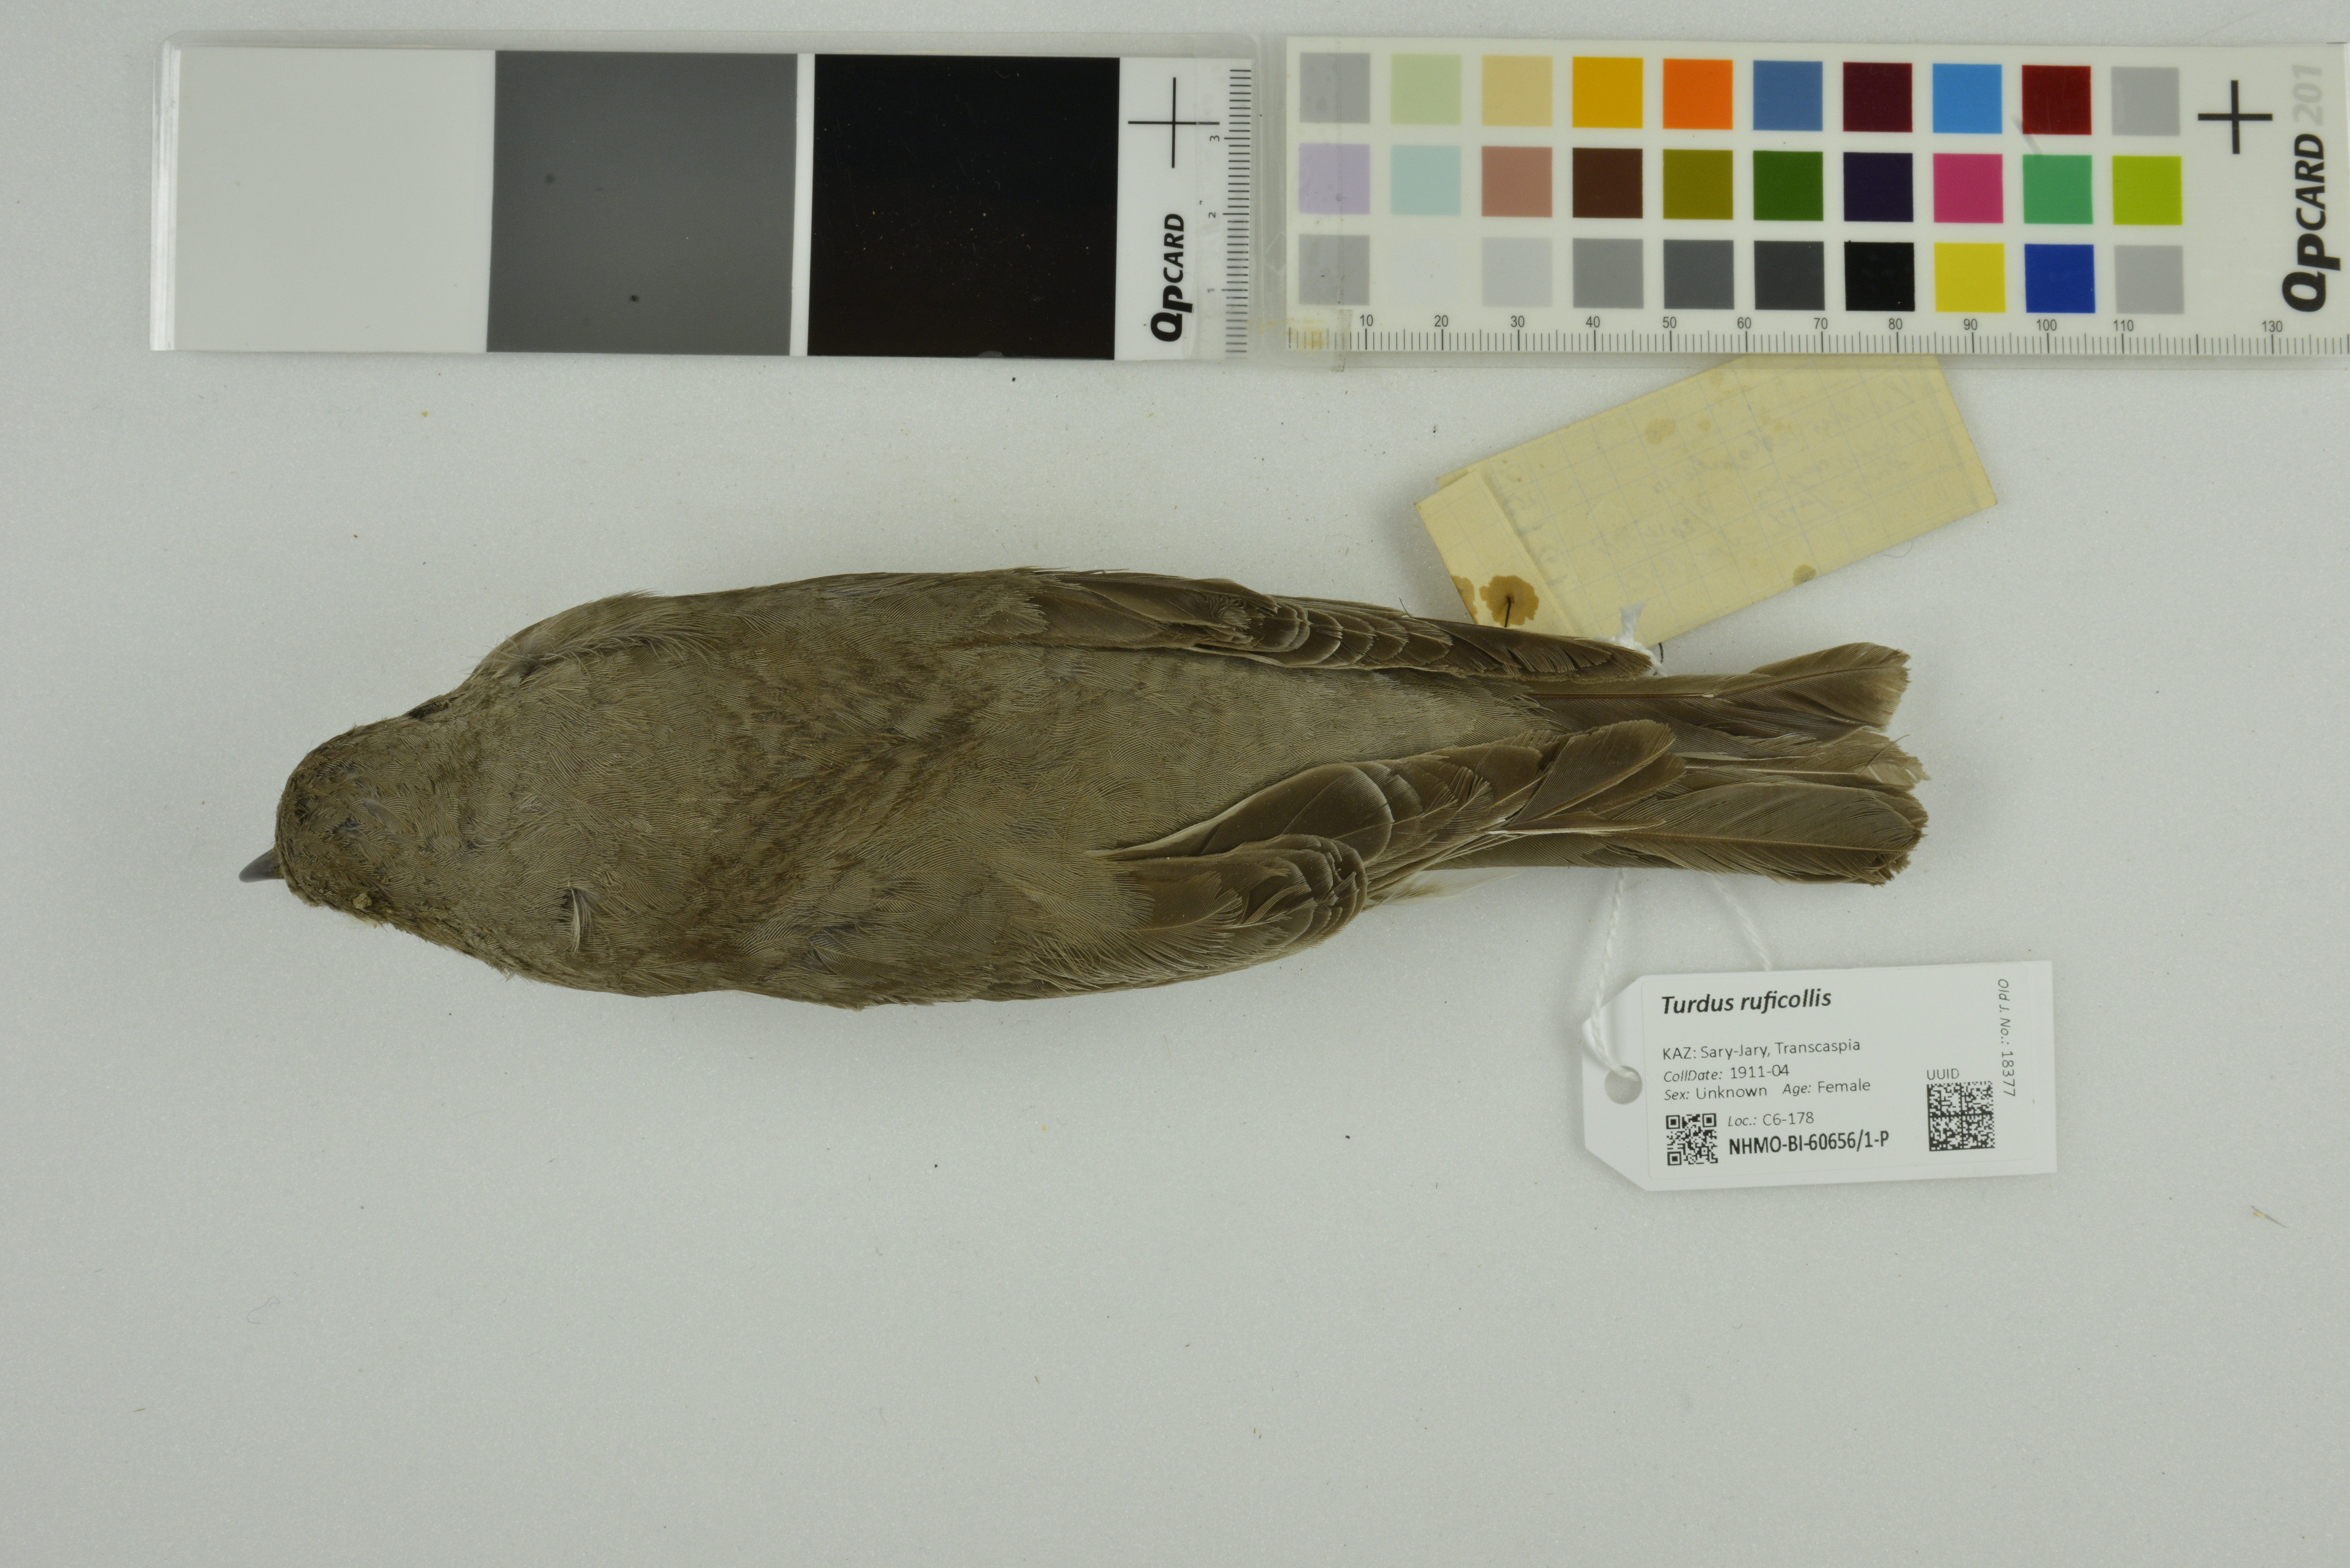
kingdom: Animalia
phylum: Chordata
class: Aves
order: Passeriformes
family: Turdidae
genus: Turdus
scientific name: Turdus ruficollis
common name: Red-throated thrush
